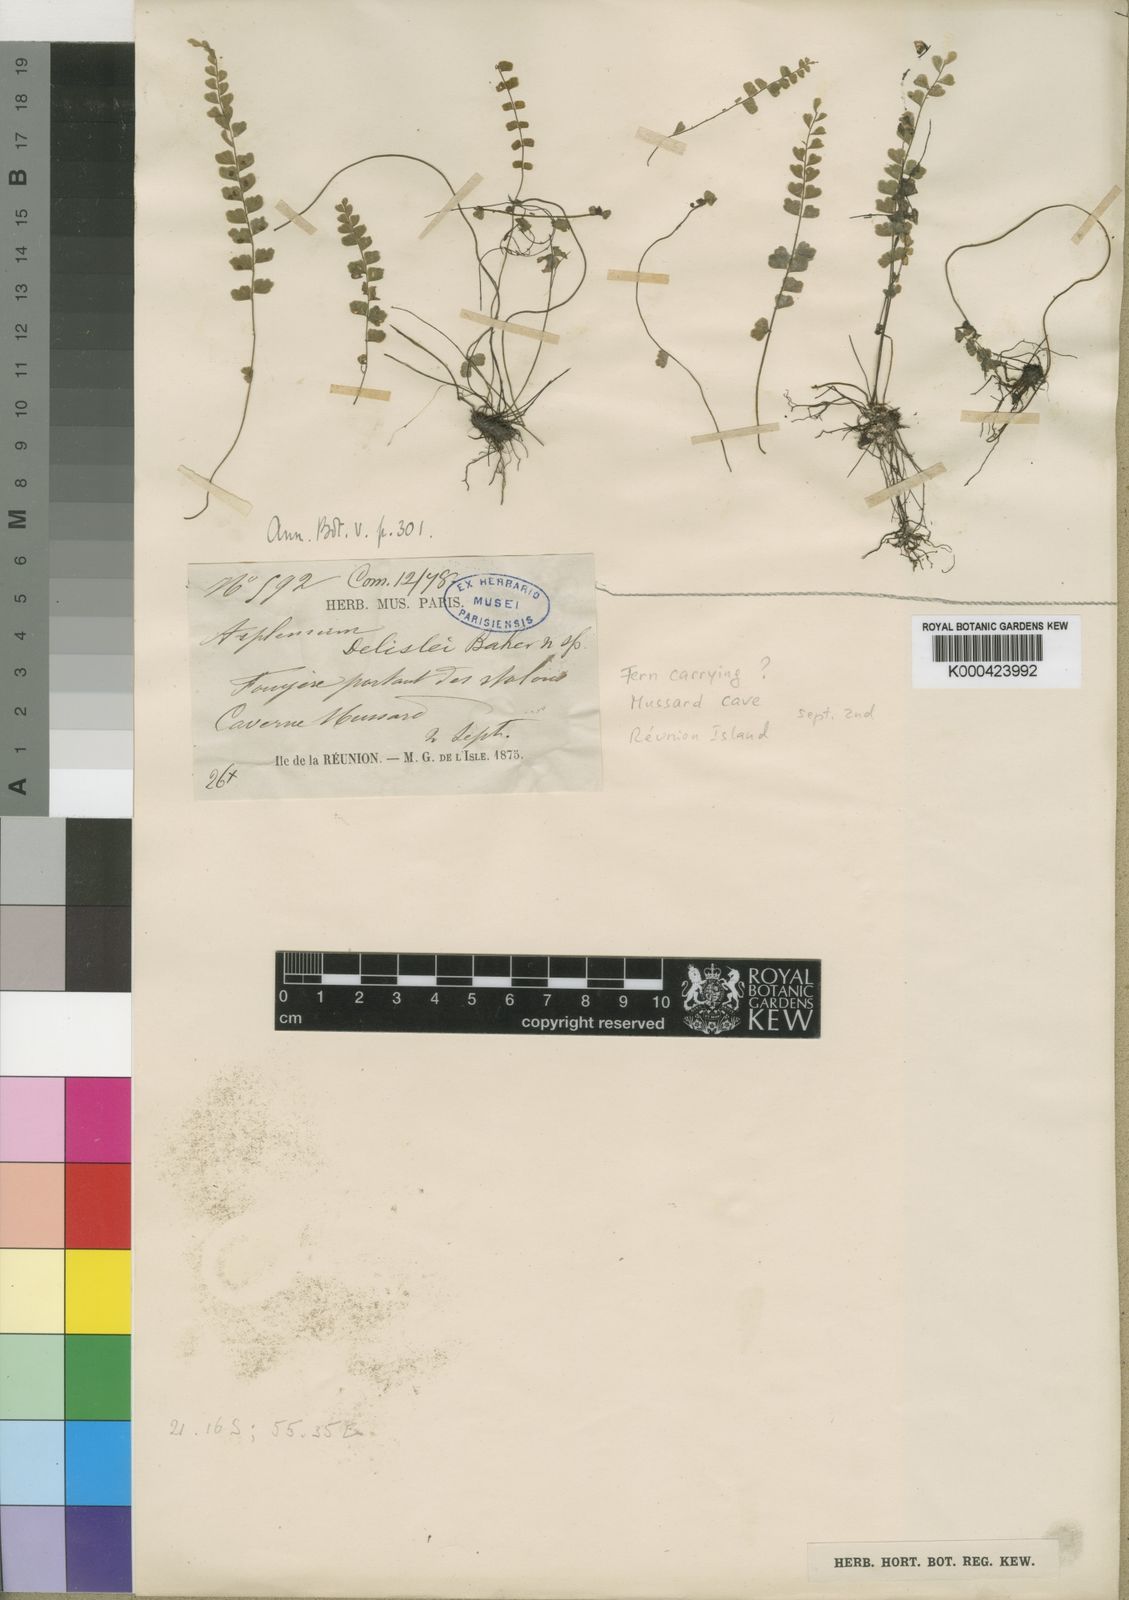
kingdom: Plantae
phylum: Tracheophyta
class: Polypodiopsida
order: Polypodiales
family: Aspleniaceae
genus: Asplenium
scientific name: Asplenium stoloniferum
